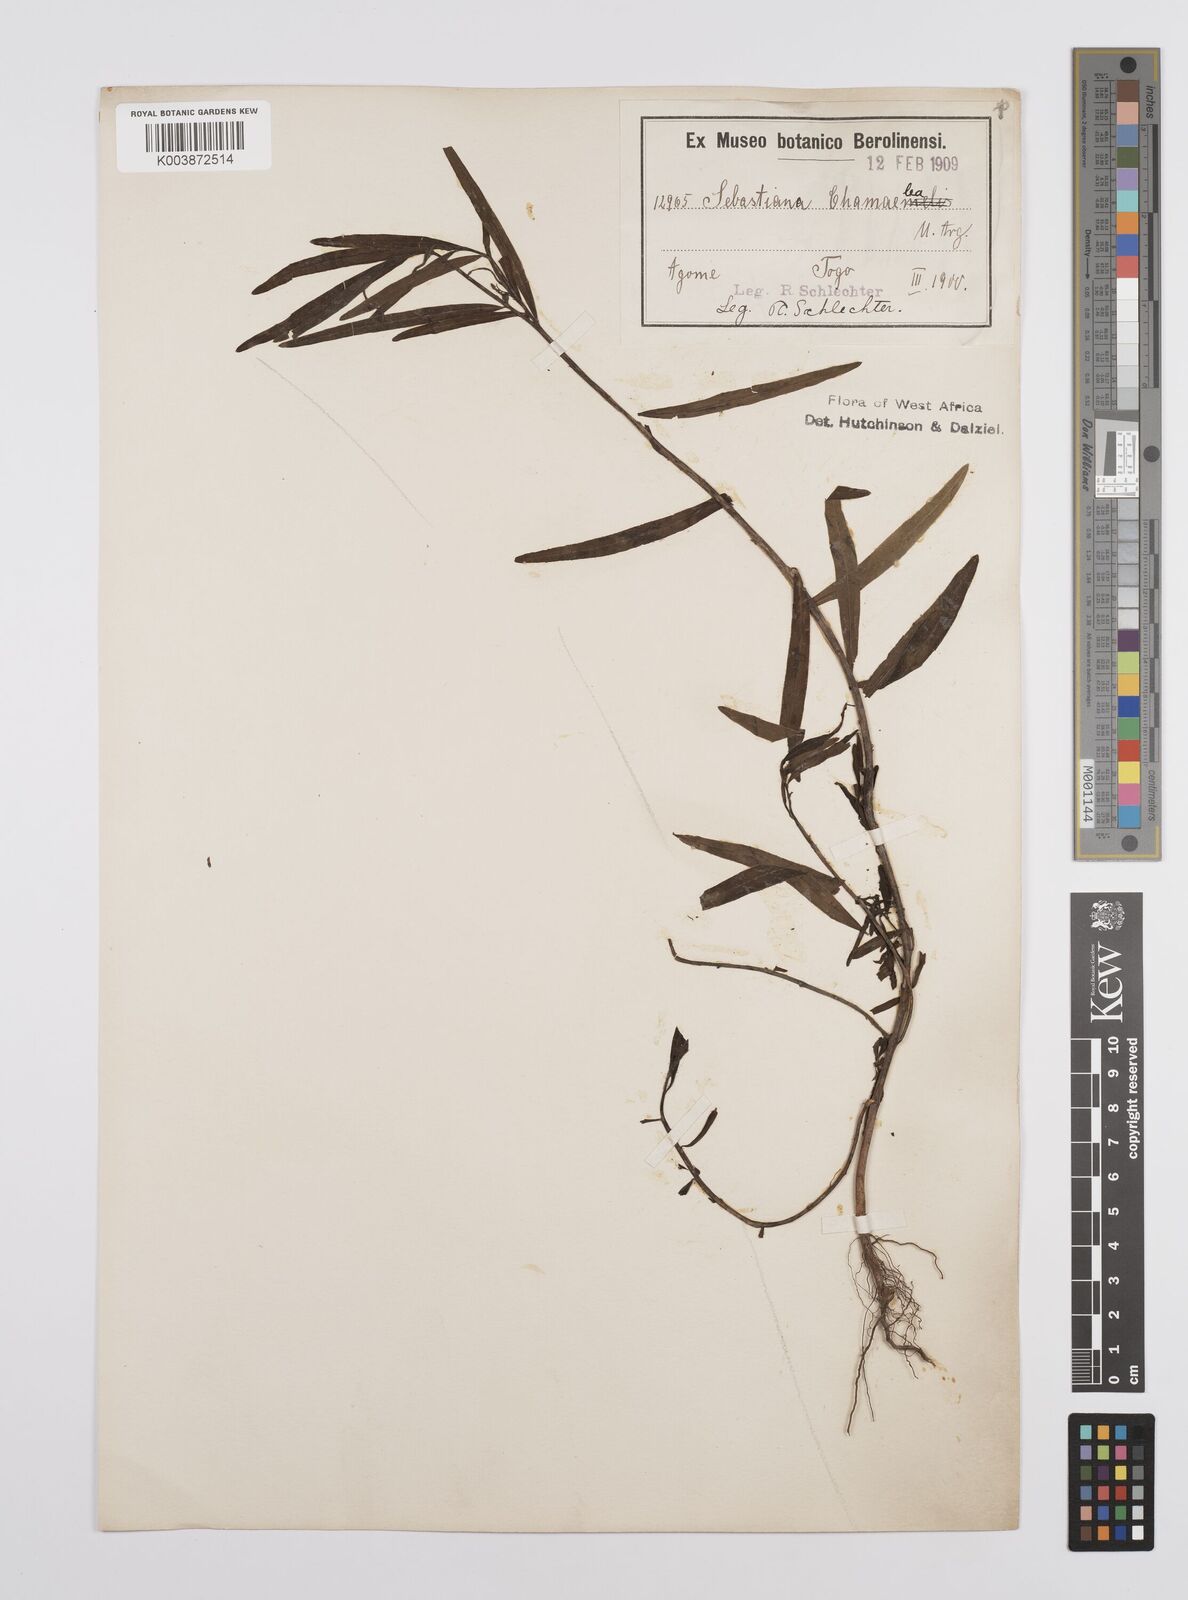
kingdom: Plantae
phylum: Tracheophyta
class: Magnoliopsida
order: Malpighiales
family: Euphorbiaceae
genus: Microstachys
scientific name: Microstachys chamaelea
